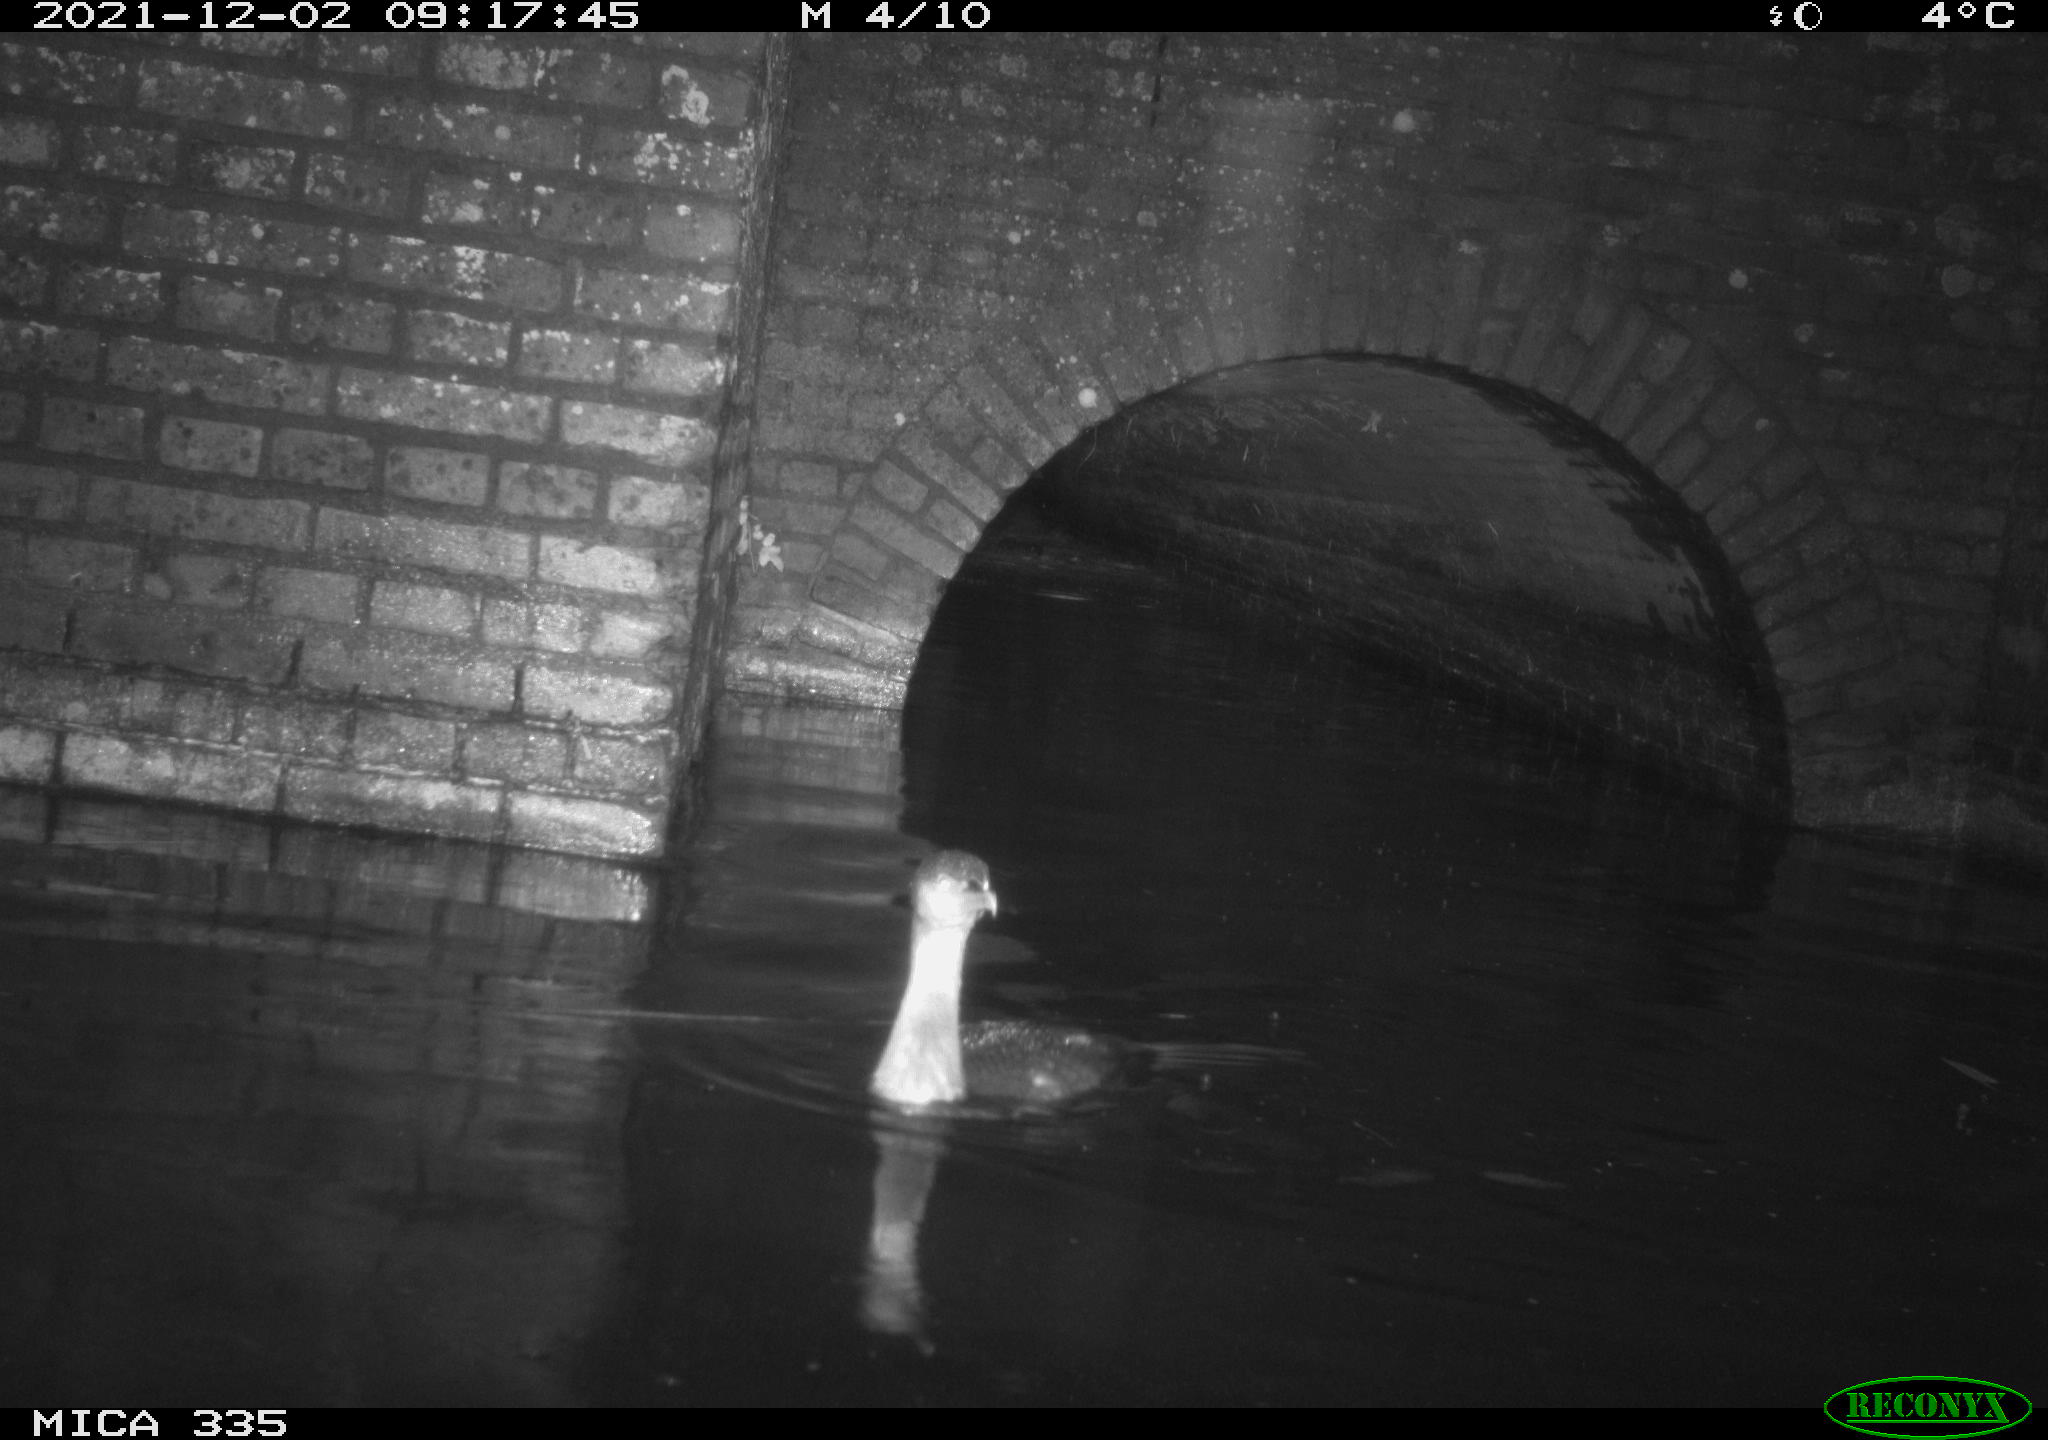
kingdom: Animalia
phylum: Chordata
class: Aves
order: Suliformes
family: Phalacrocoracidae
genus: Phalacrocorax
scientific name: Phalacrocorax carbo
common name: Great cormorant
